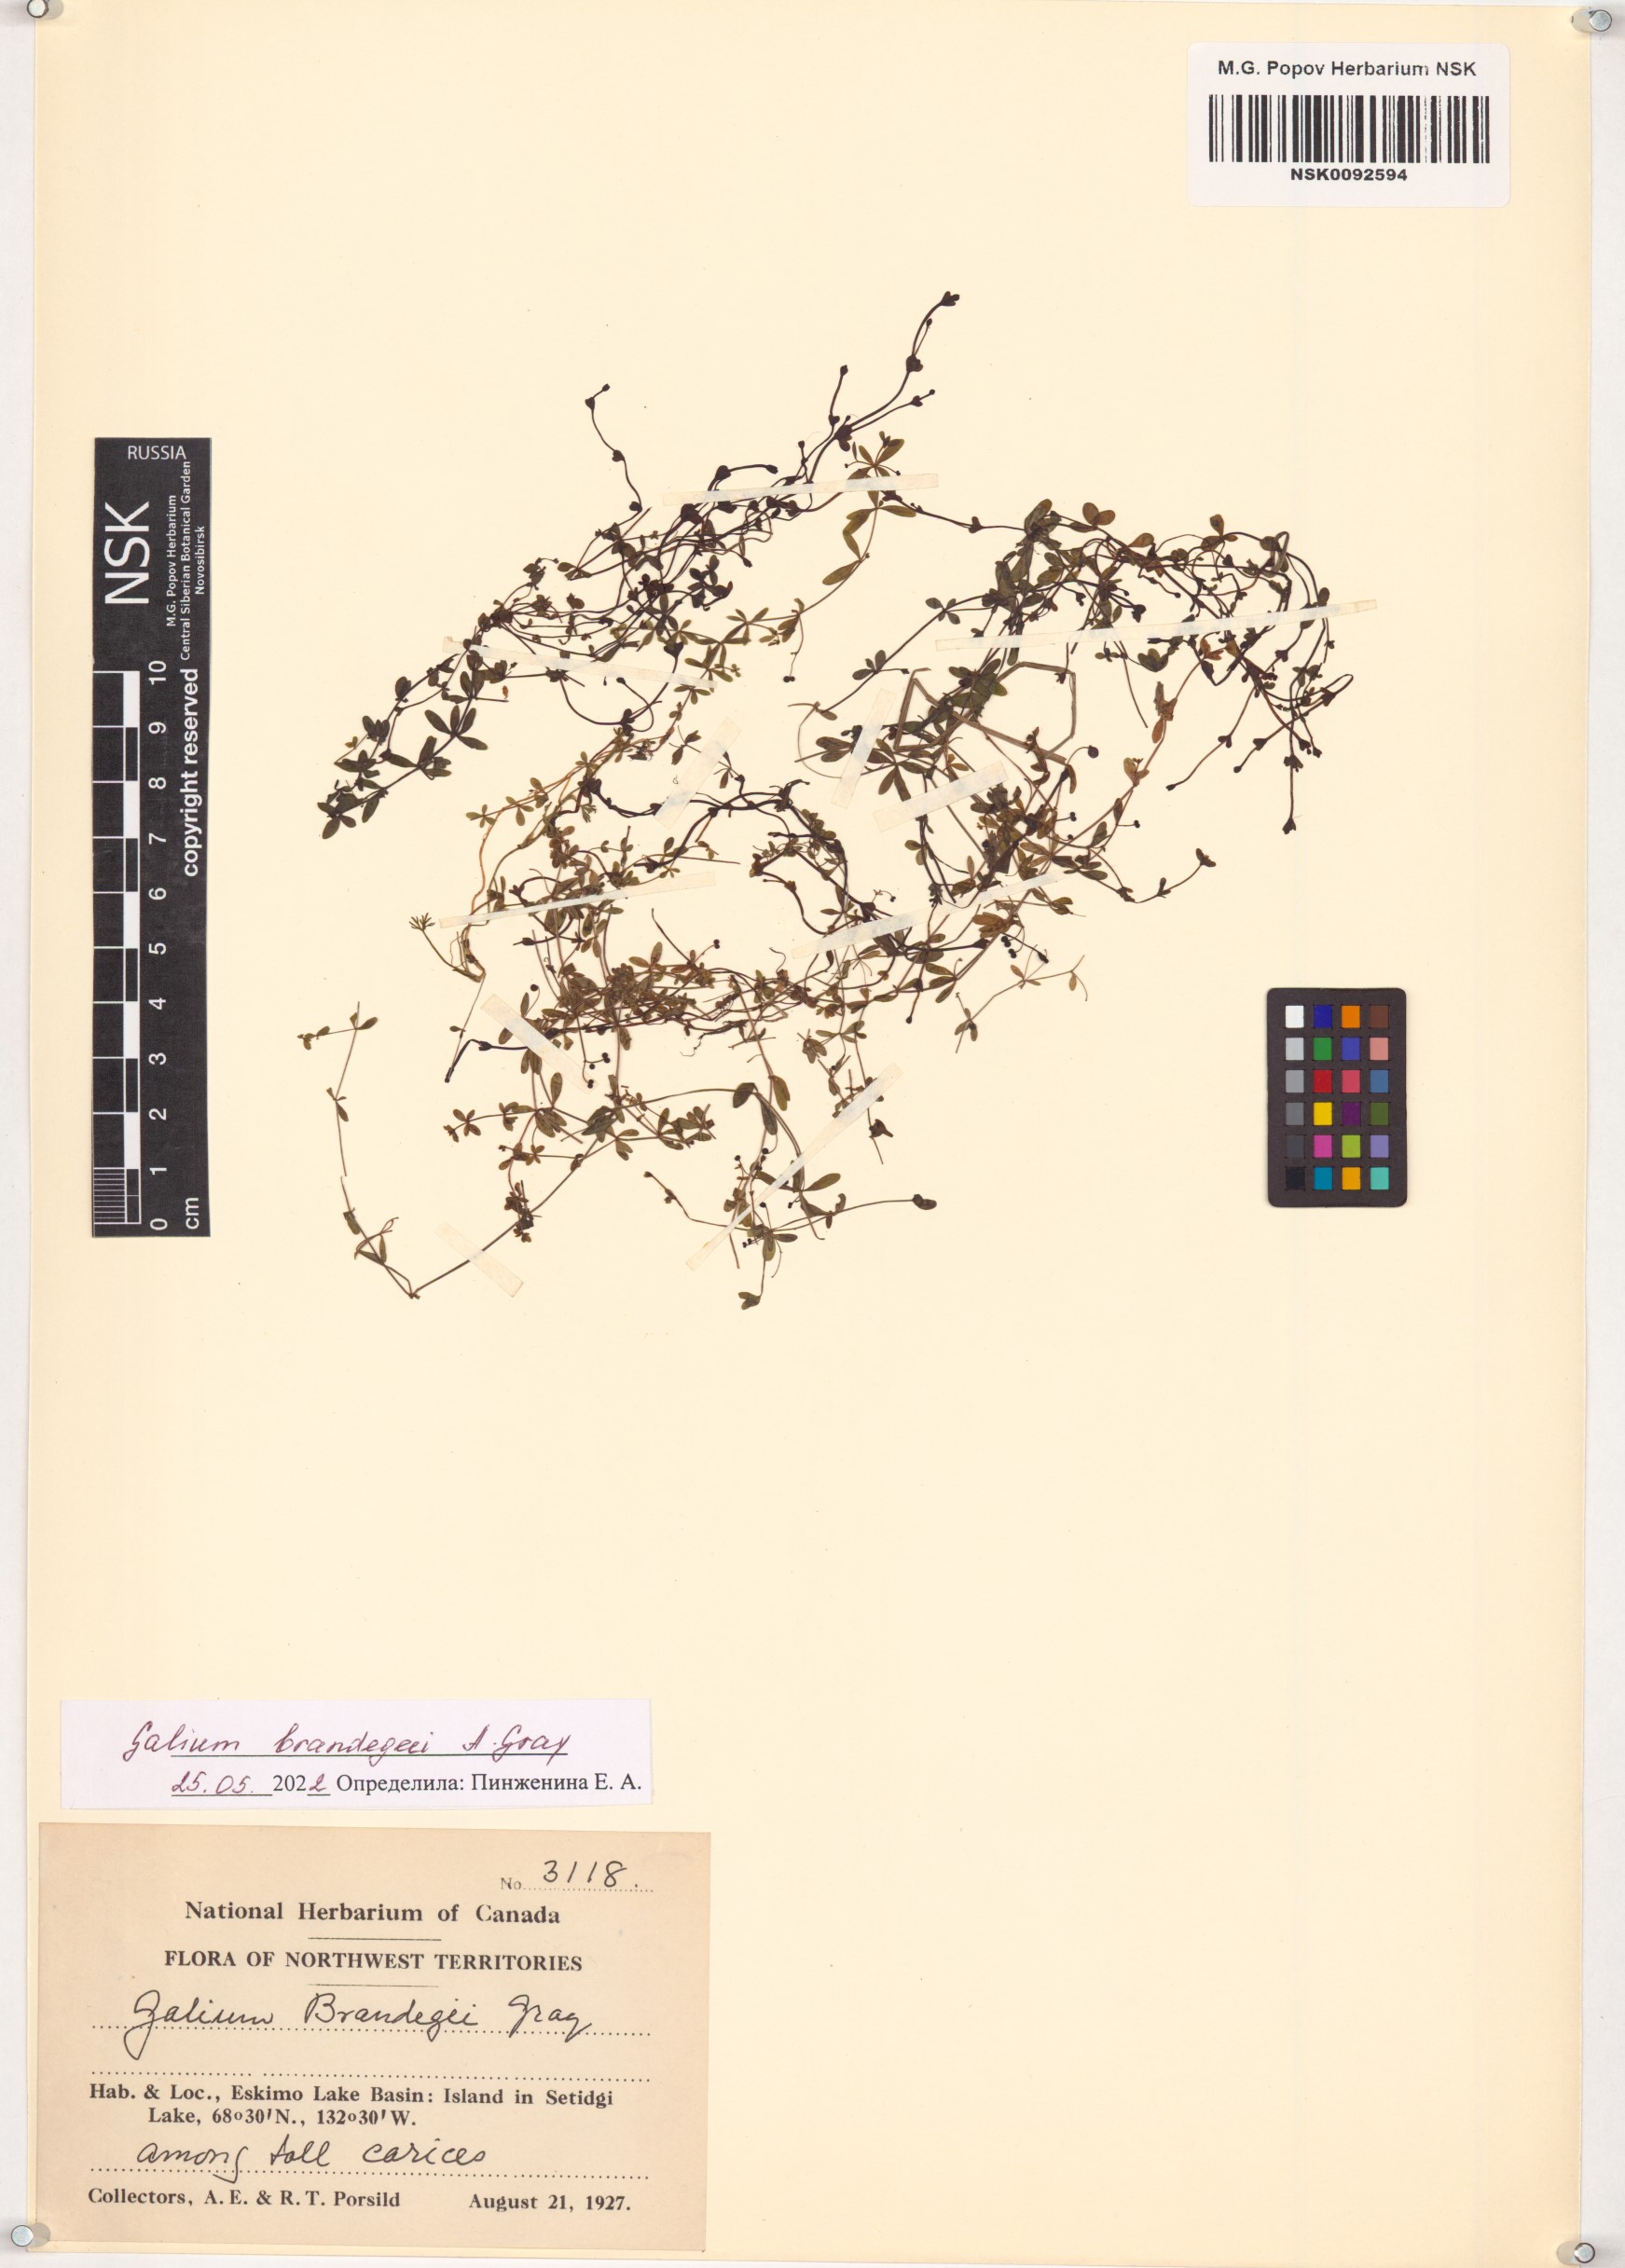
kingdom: Plantae
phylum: Tracheophyta
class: Magnoliopsida
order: Gentianales
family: Rubiaceae
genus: Galium
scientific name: Galium trifidum
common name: Small bedstraw
